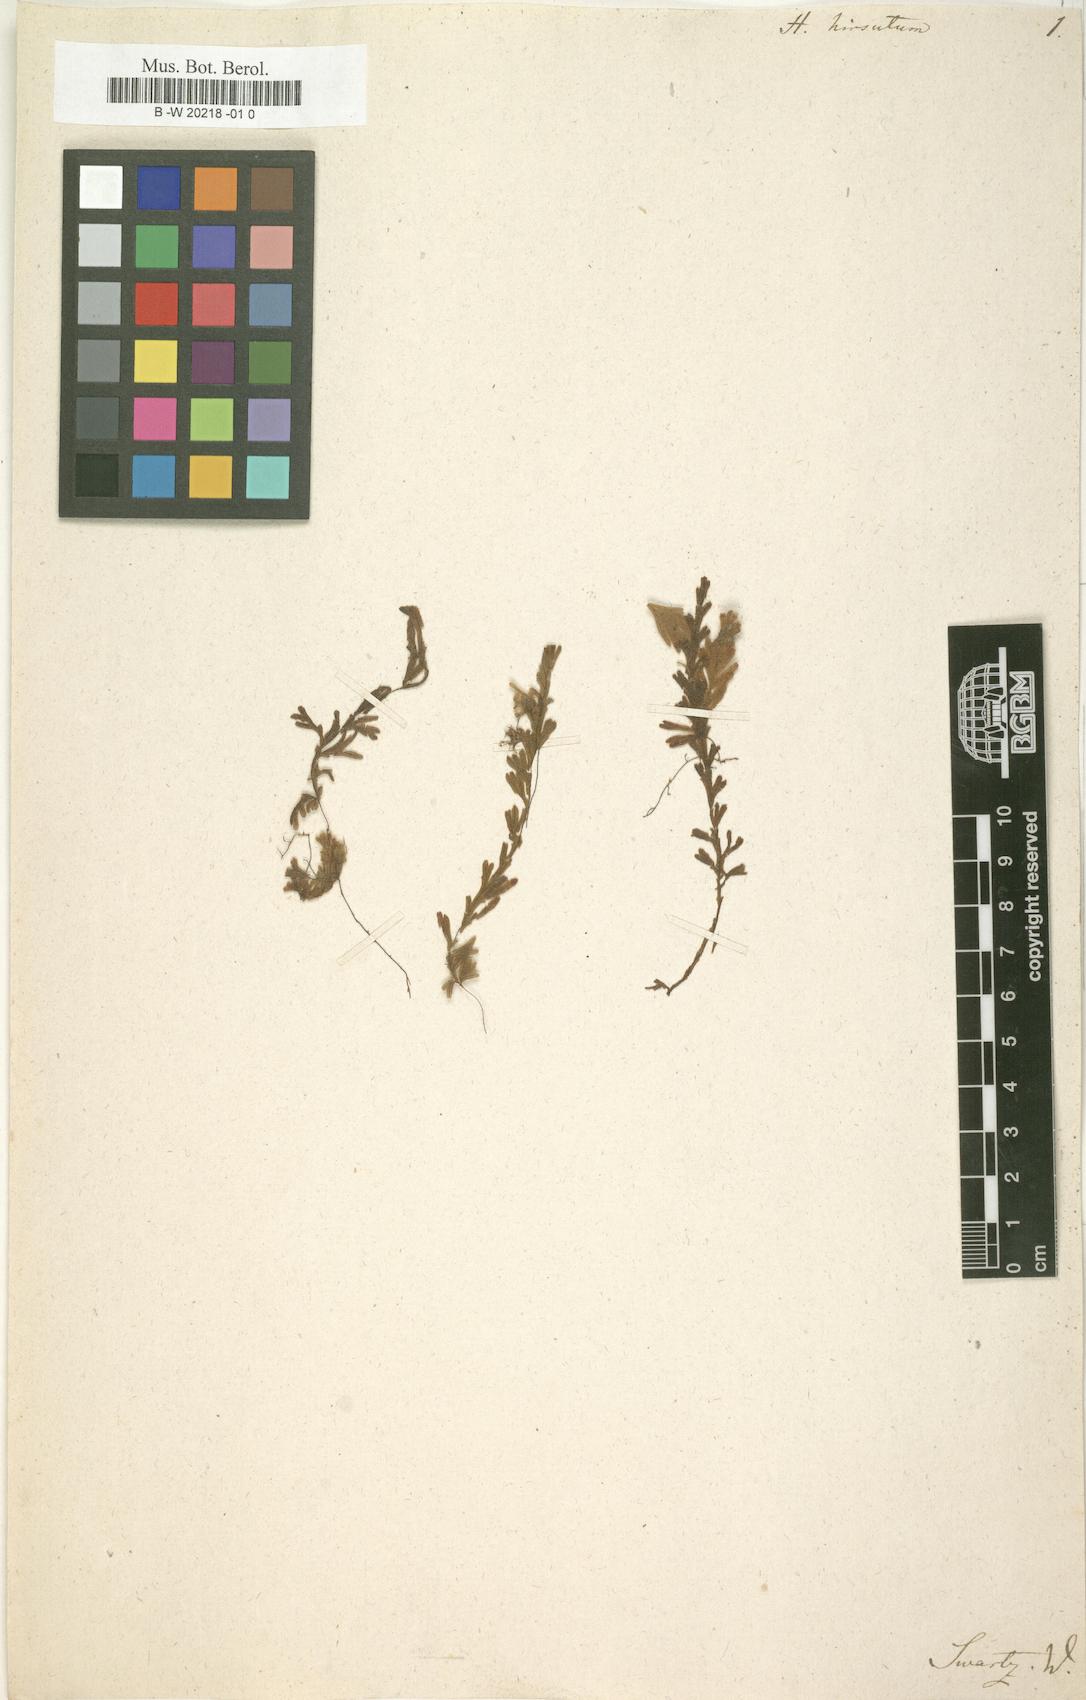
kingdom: Plantae
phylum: Tracheophyta
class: Polypodiopsida
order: Hymenophyllales
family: Hymenophyllaceae
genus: Hymenophyllum
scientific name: Hymenophyllum hirsutum
